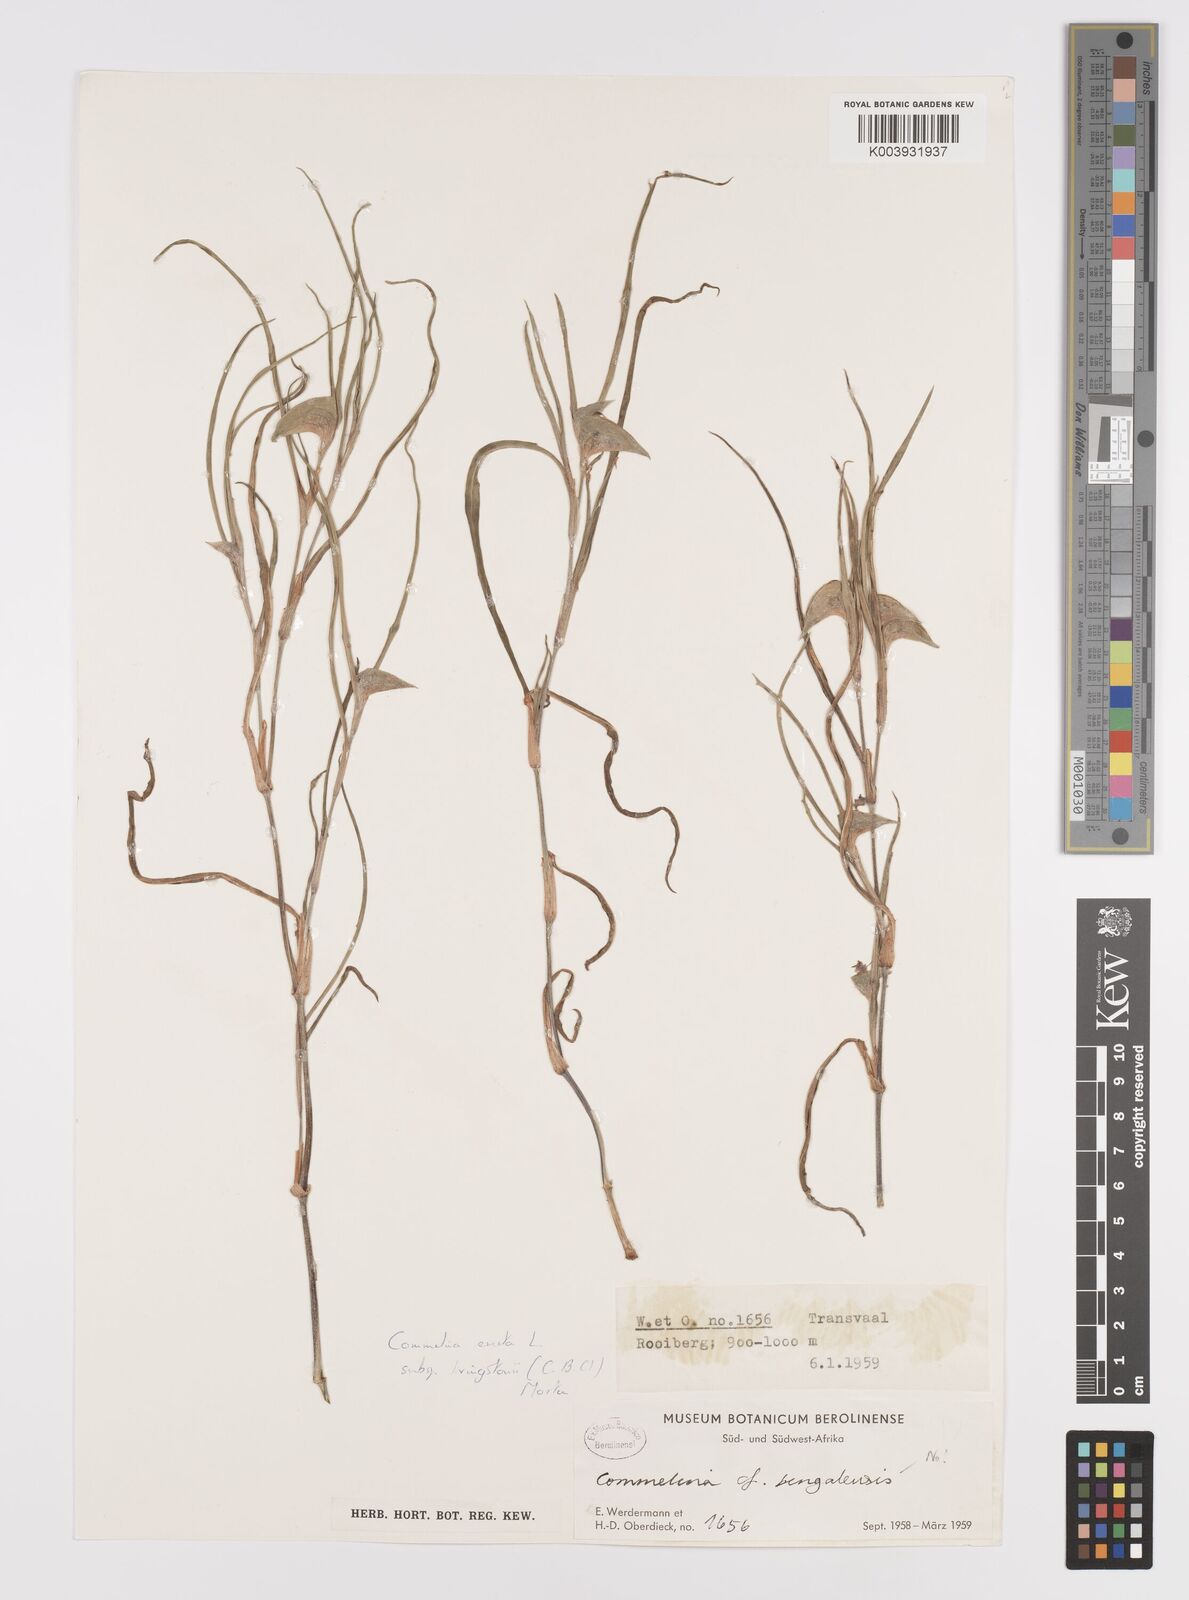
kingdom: Plantae
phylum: Tracheophyta
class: Liliopsida
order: Commelinales
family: Commelinaceae
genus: Commelina
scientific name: Commelina erecta
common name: Blousel blommetjie
